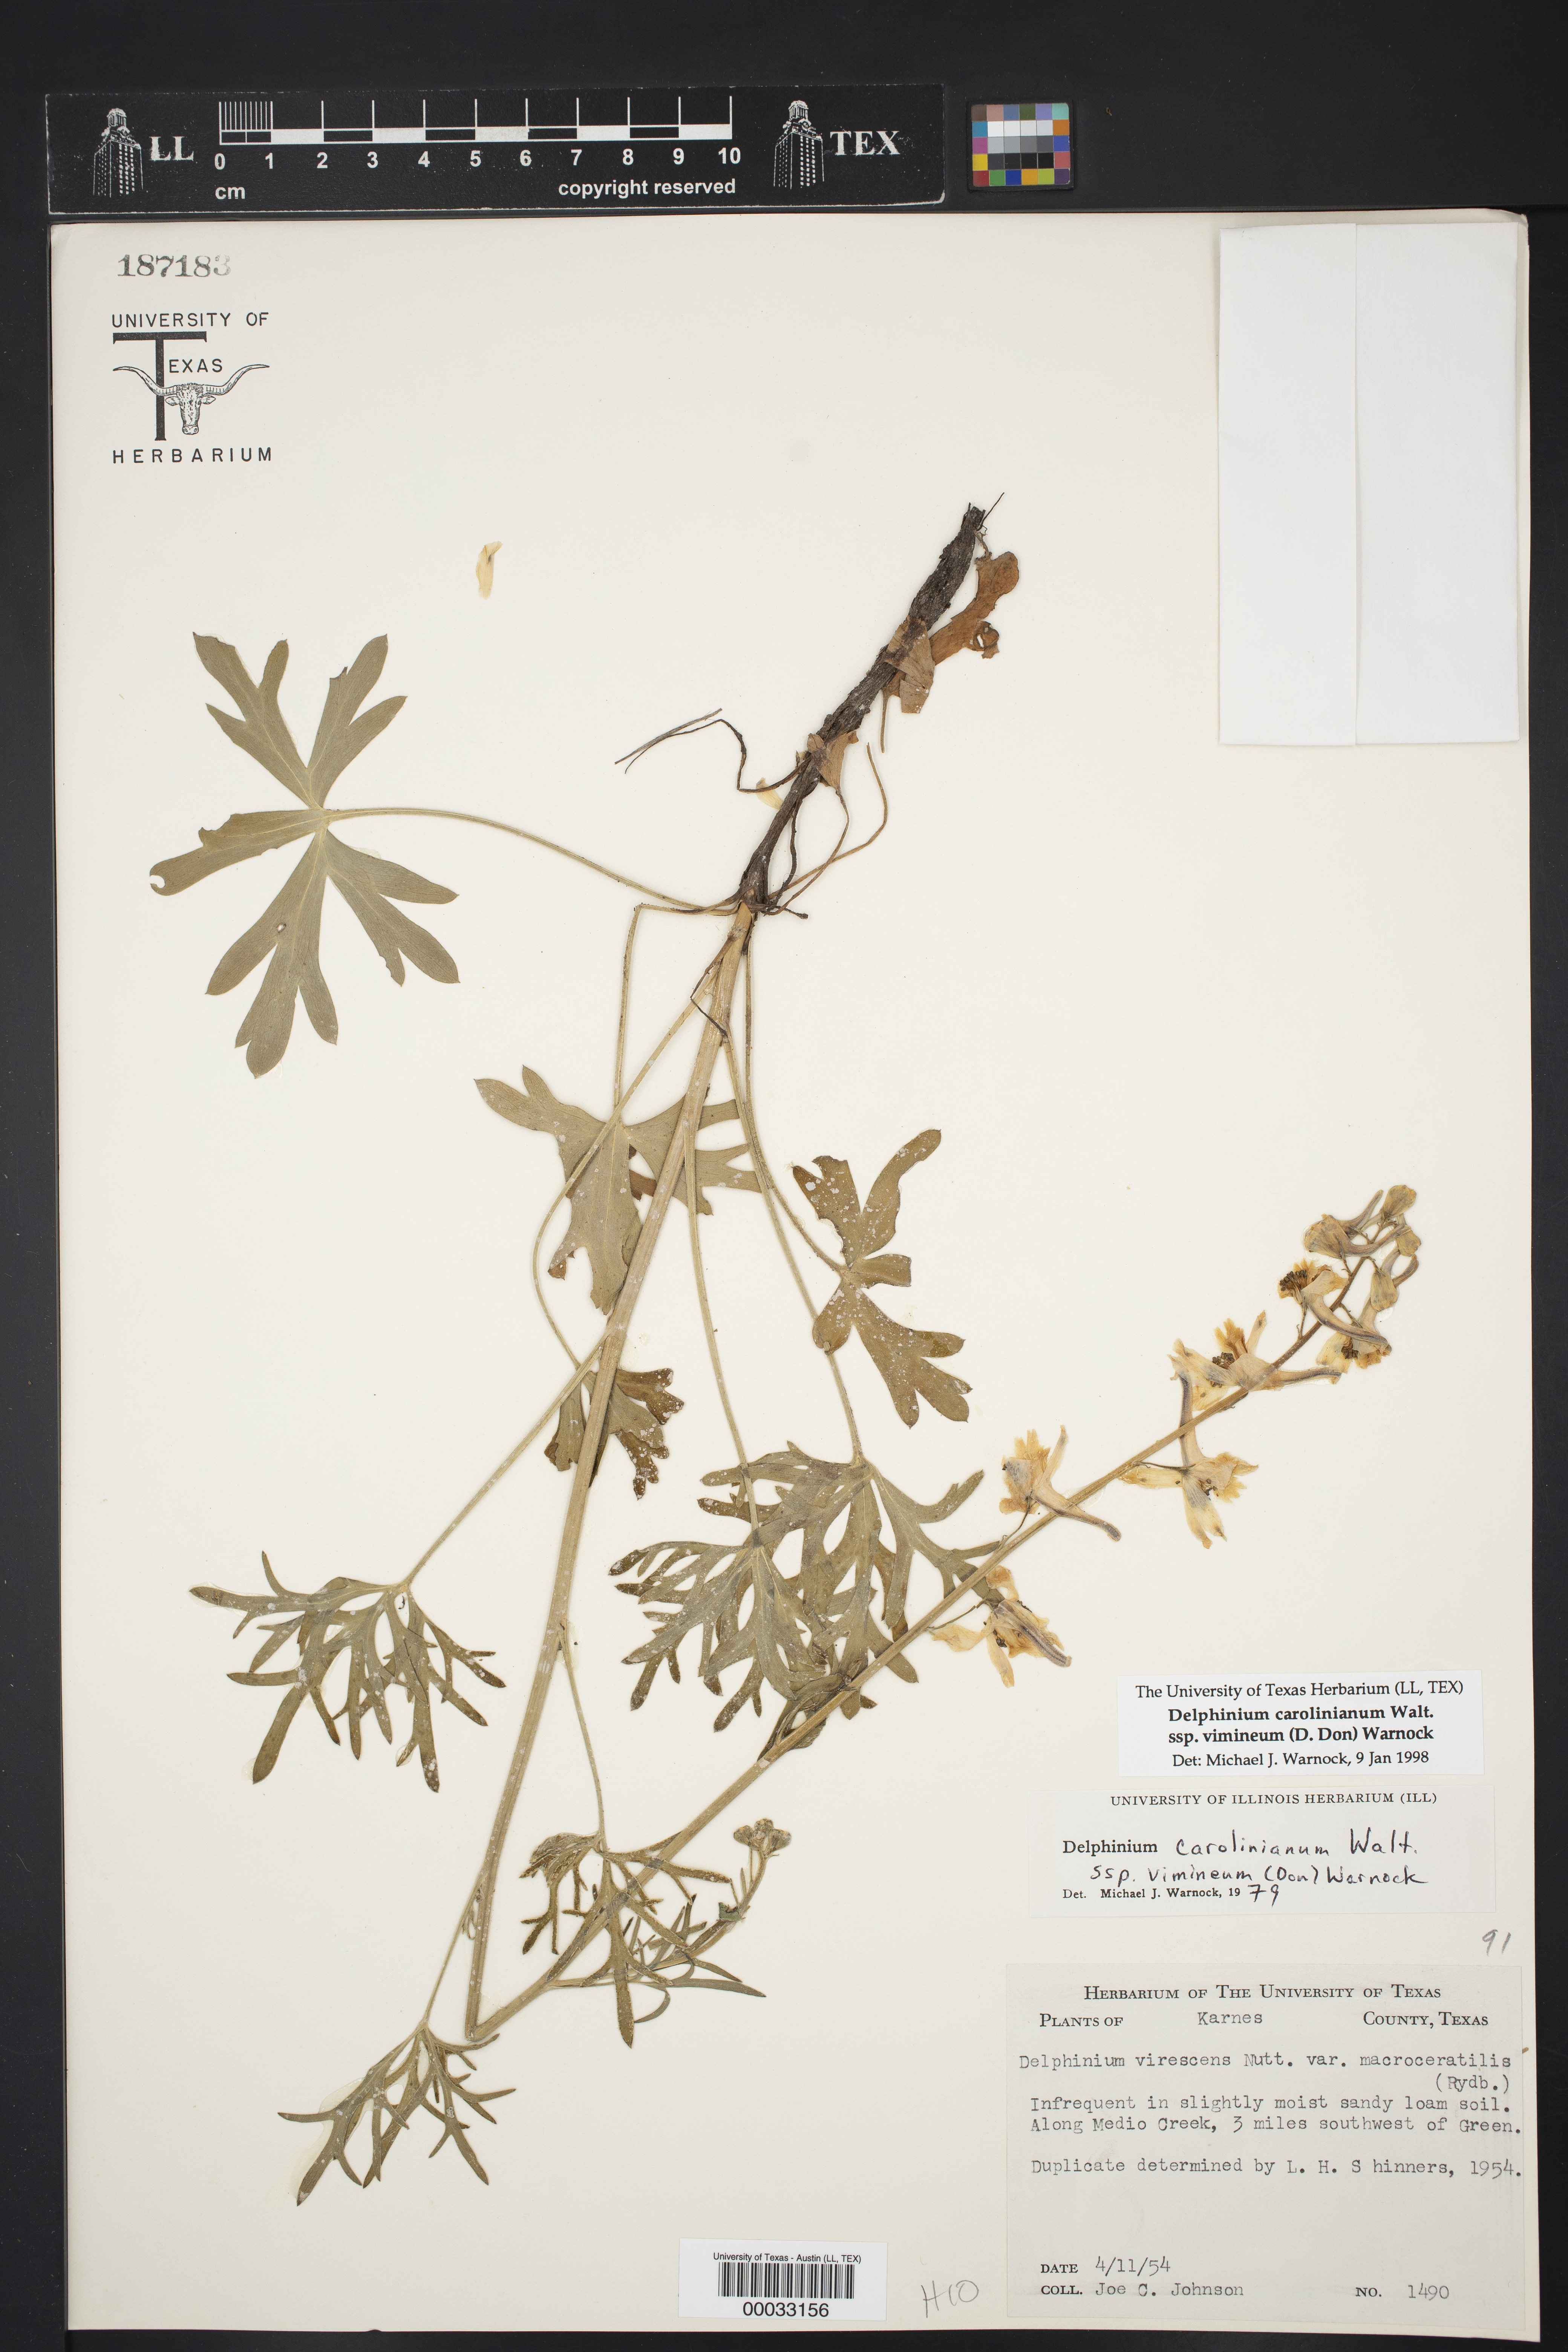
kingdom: Plantae
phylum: Tracheophyta
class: Magnoliopsida
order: Ranunculales
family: Ranunculaceae
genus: Delphinium
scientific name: Delphinium carolinianum
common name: Carolina larkspur
